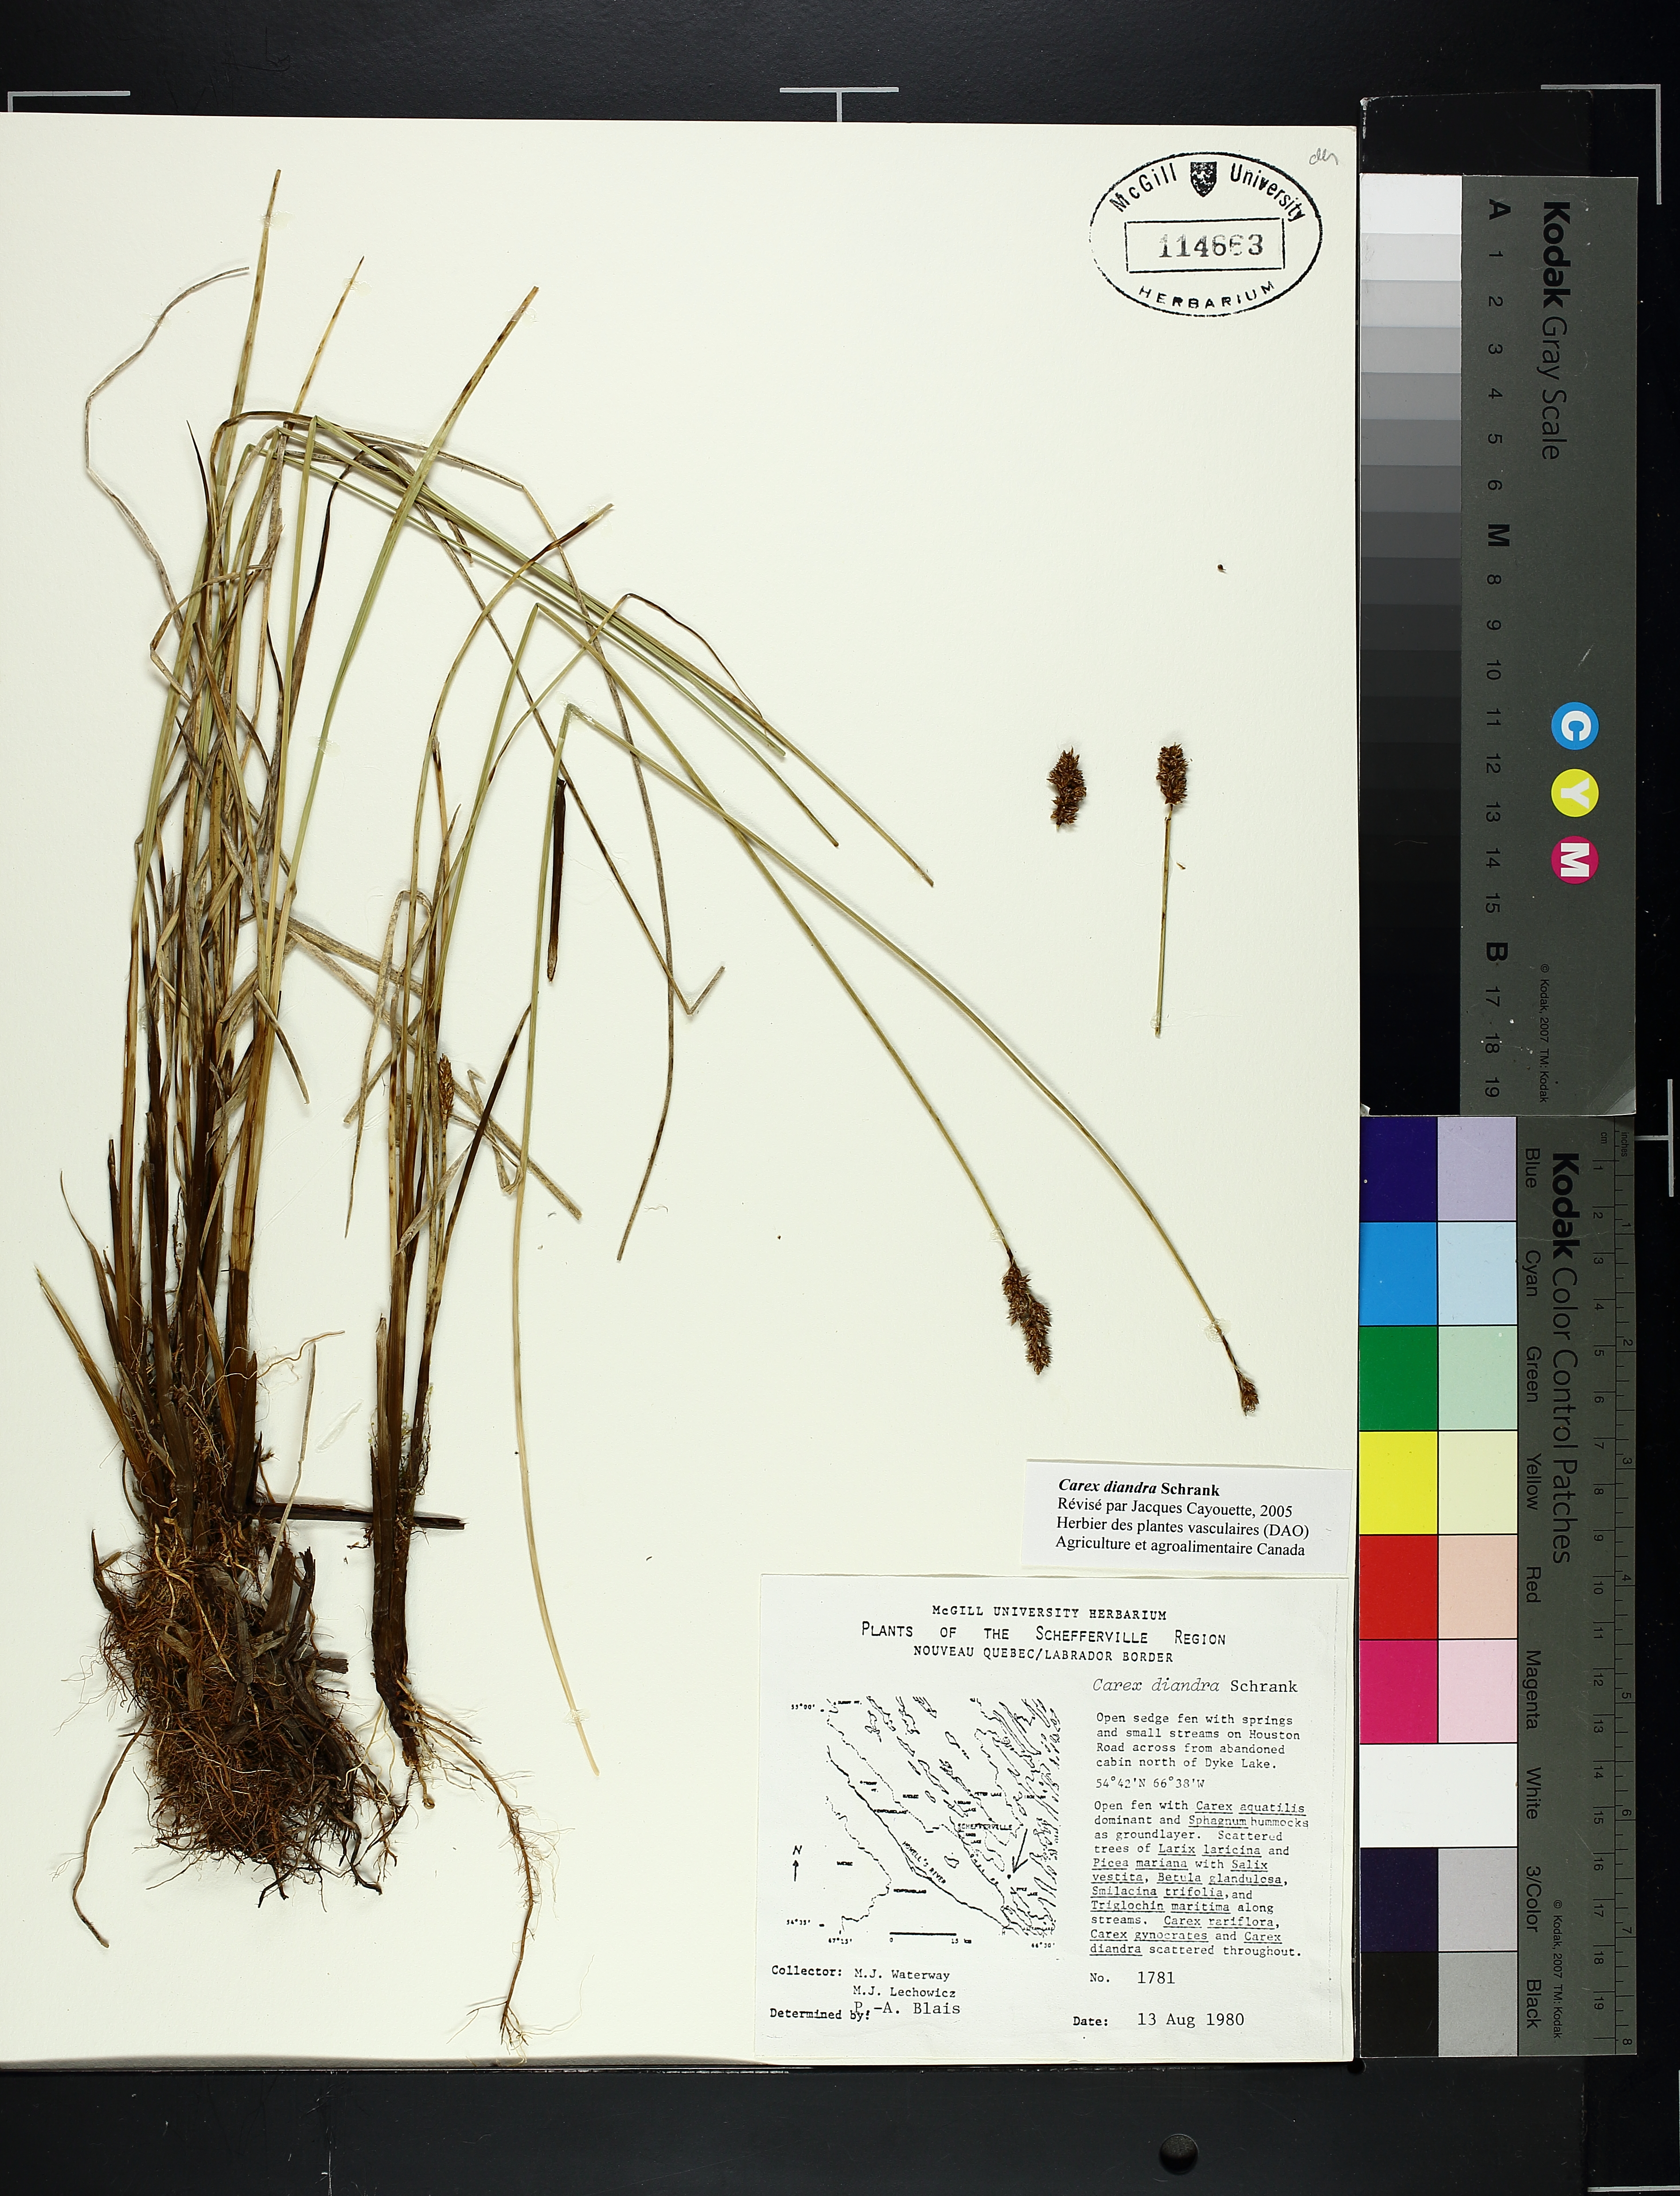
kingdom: Plantae
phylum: Tracheophyta
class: Liliopsida
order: Poales
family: Cyperaceae
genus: Carex
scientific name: Carex diandra
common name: Lesser tussock-sedge
